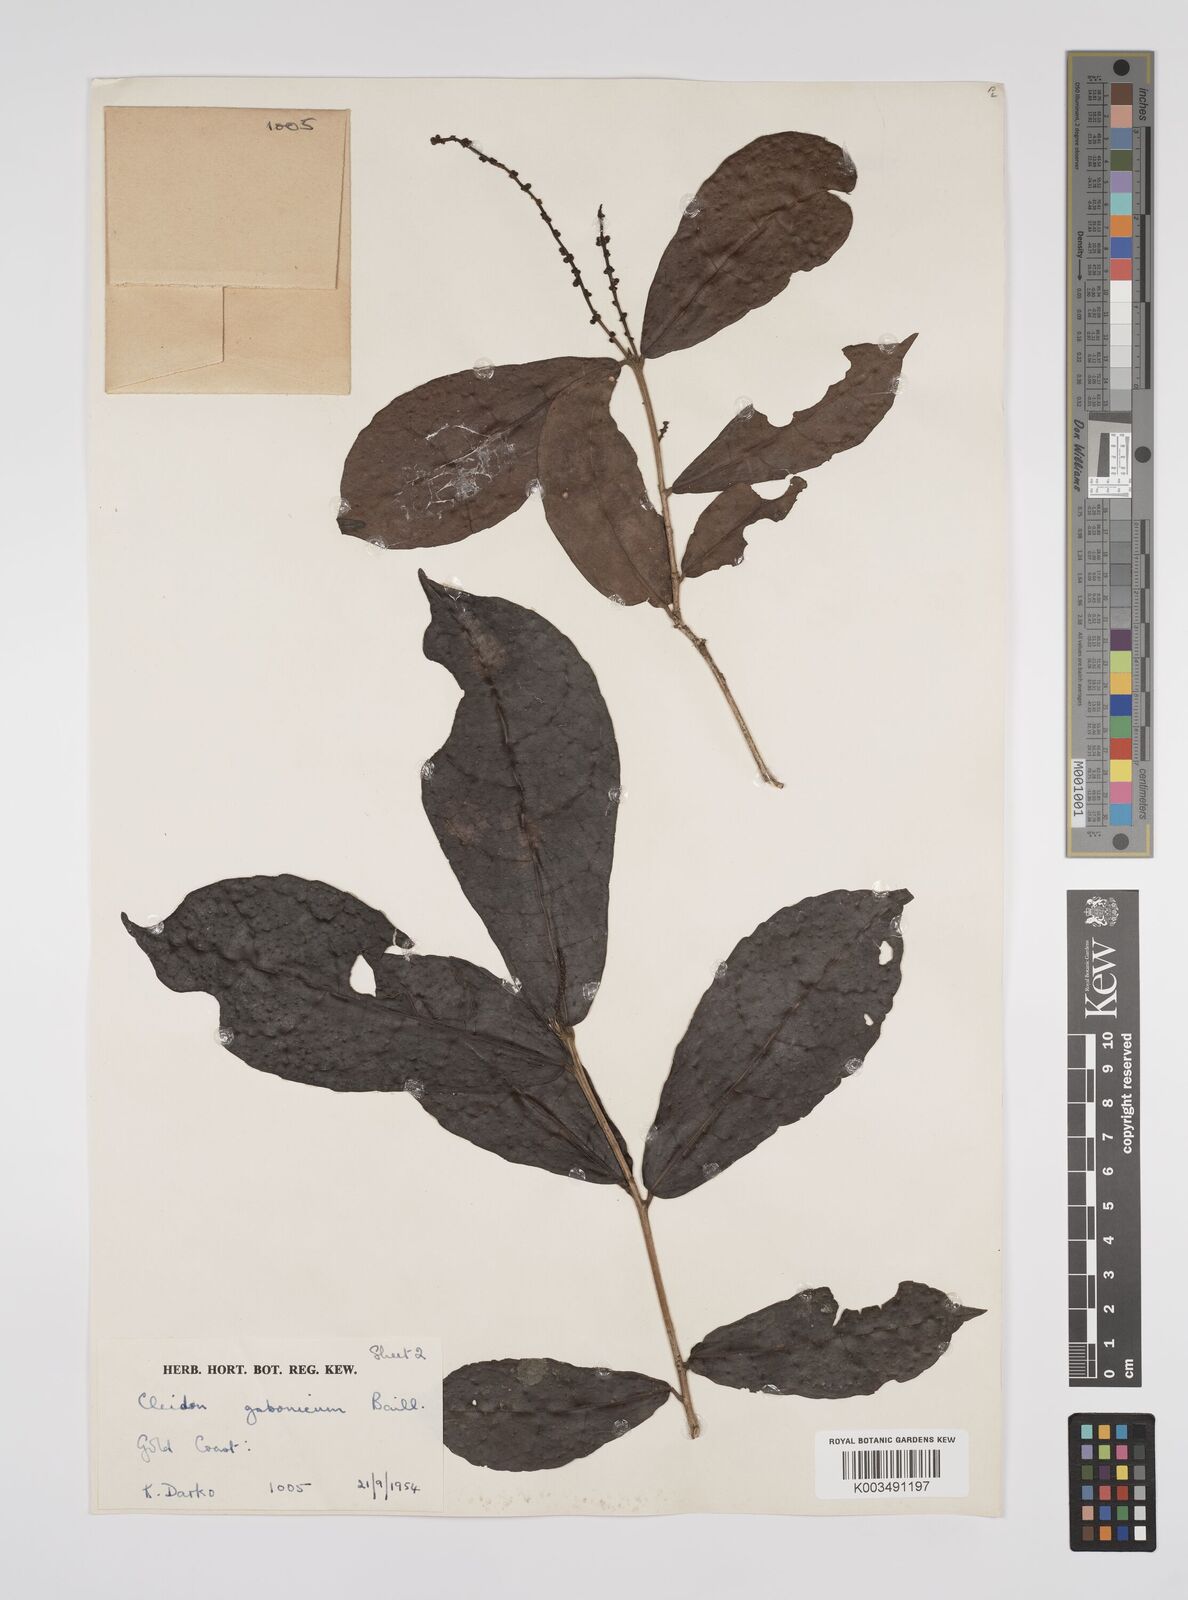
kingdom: Plantae
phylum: Tracheophyta
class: Magnoliopsida
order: Malpighiales
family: Euphorbiaceae
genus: Cleidion
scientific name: Cleidion gabonicum
